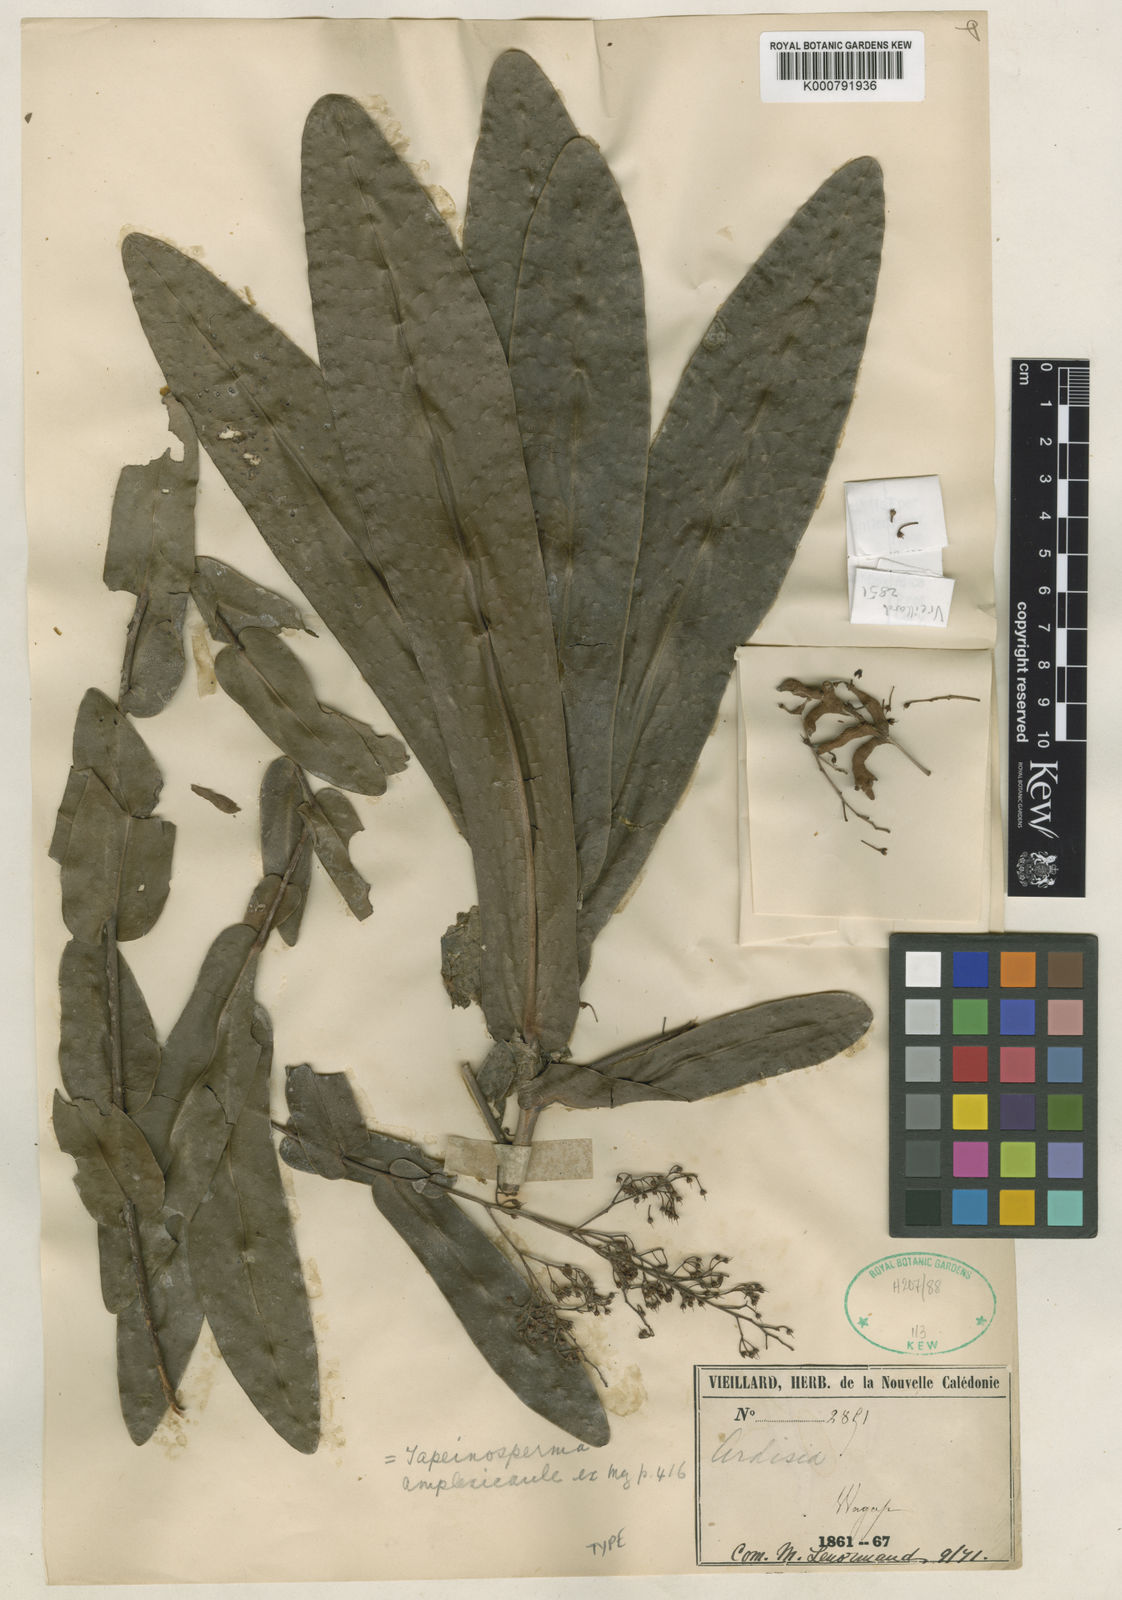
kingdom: Plantae
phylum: Tracheophyta
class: Magnoliopsida
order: Ericales
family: Primulaceae
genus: Tapeinosperma
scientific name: Tapeinosperma amplexicaule
